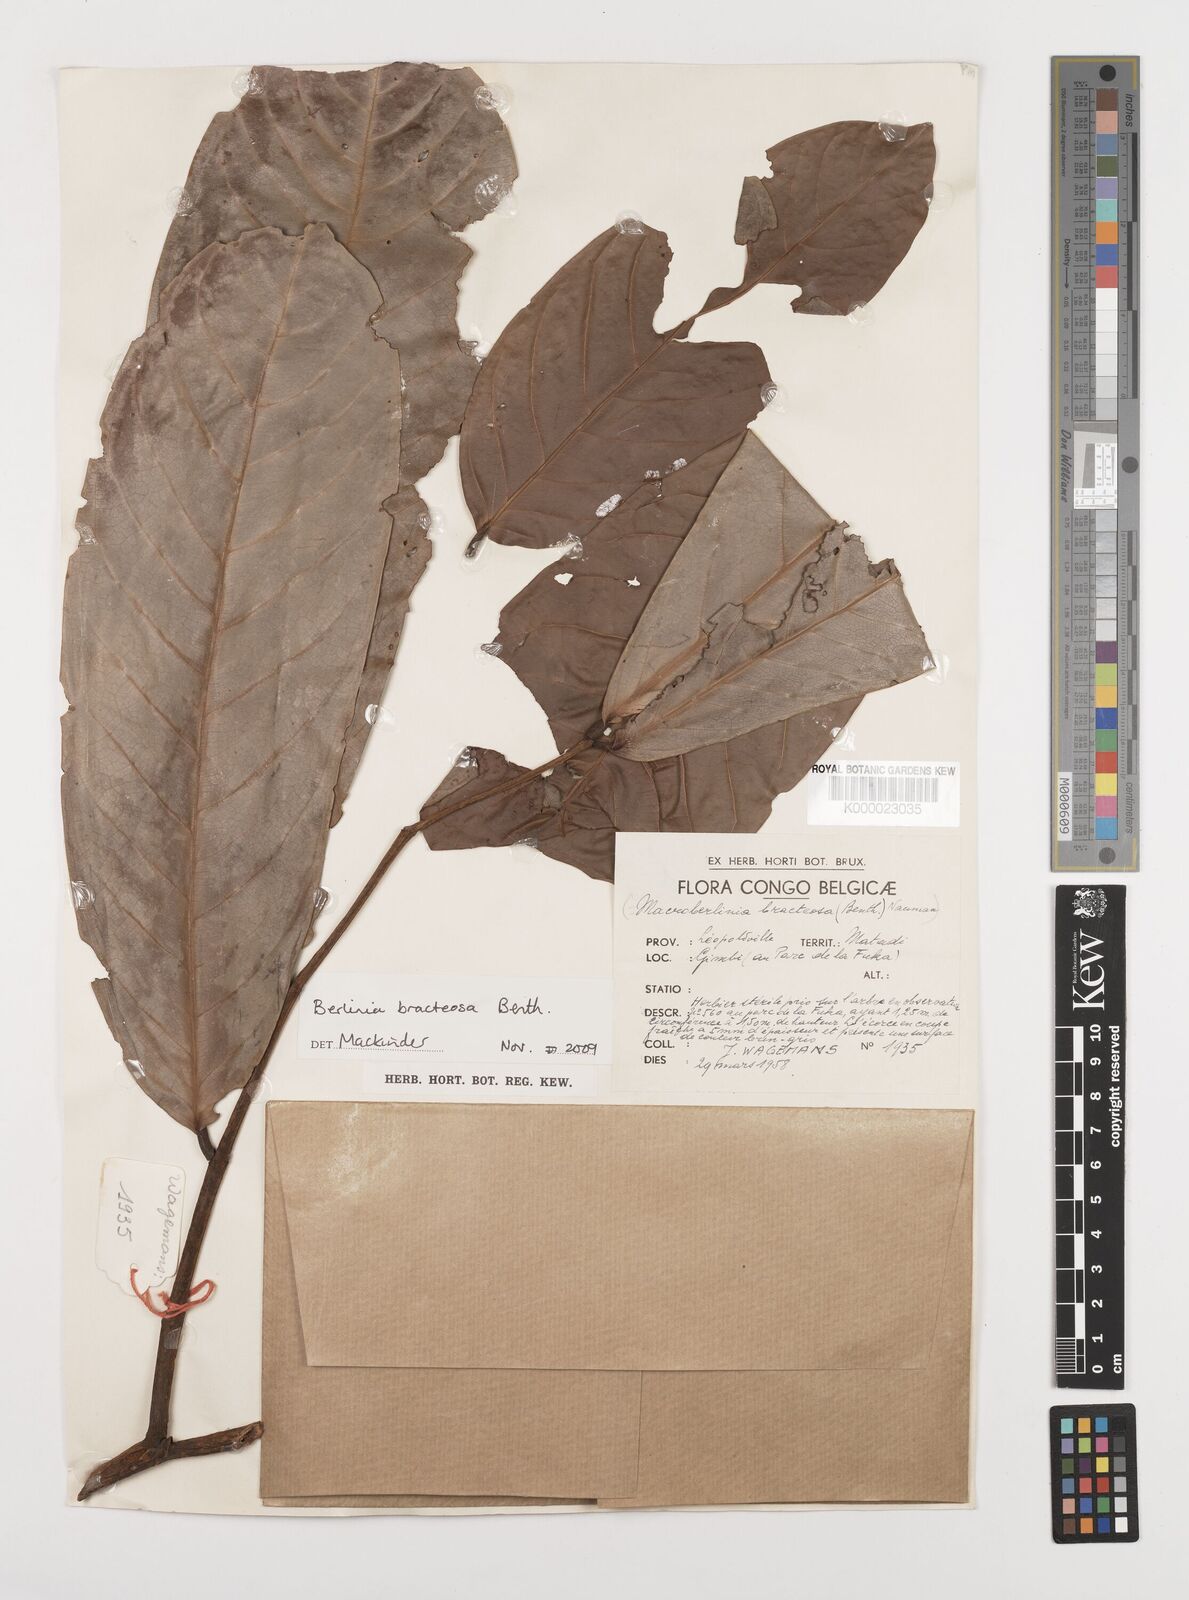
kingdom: Plantae
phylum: Tracheophyta
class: Magnoliopsida
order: Fabales
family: Fabaceae
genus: Berlinia
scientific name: Berlinia bracteosa
